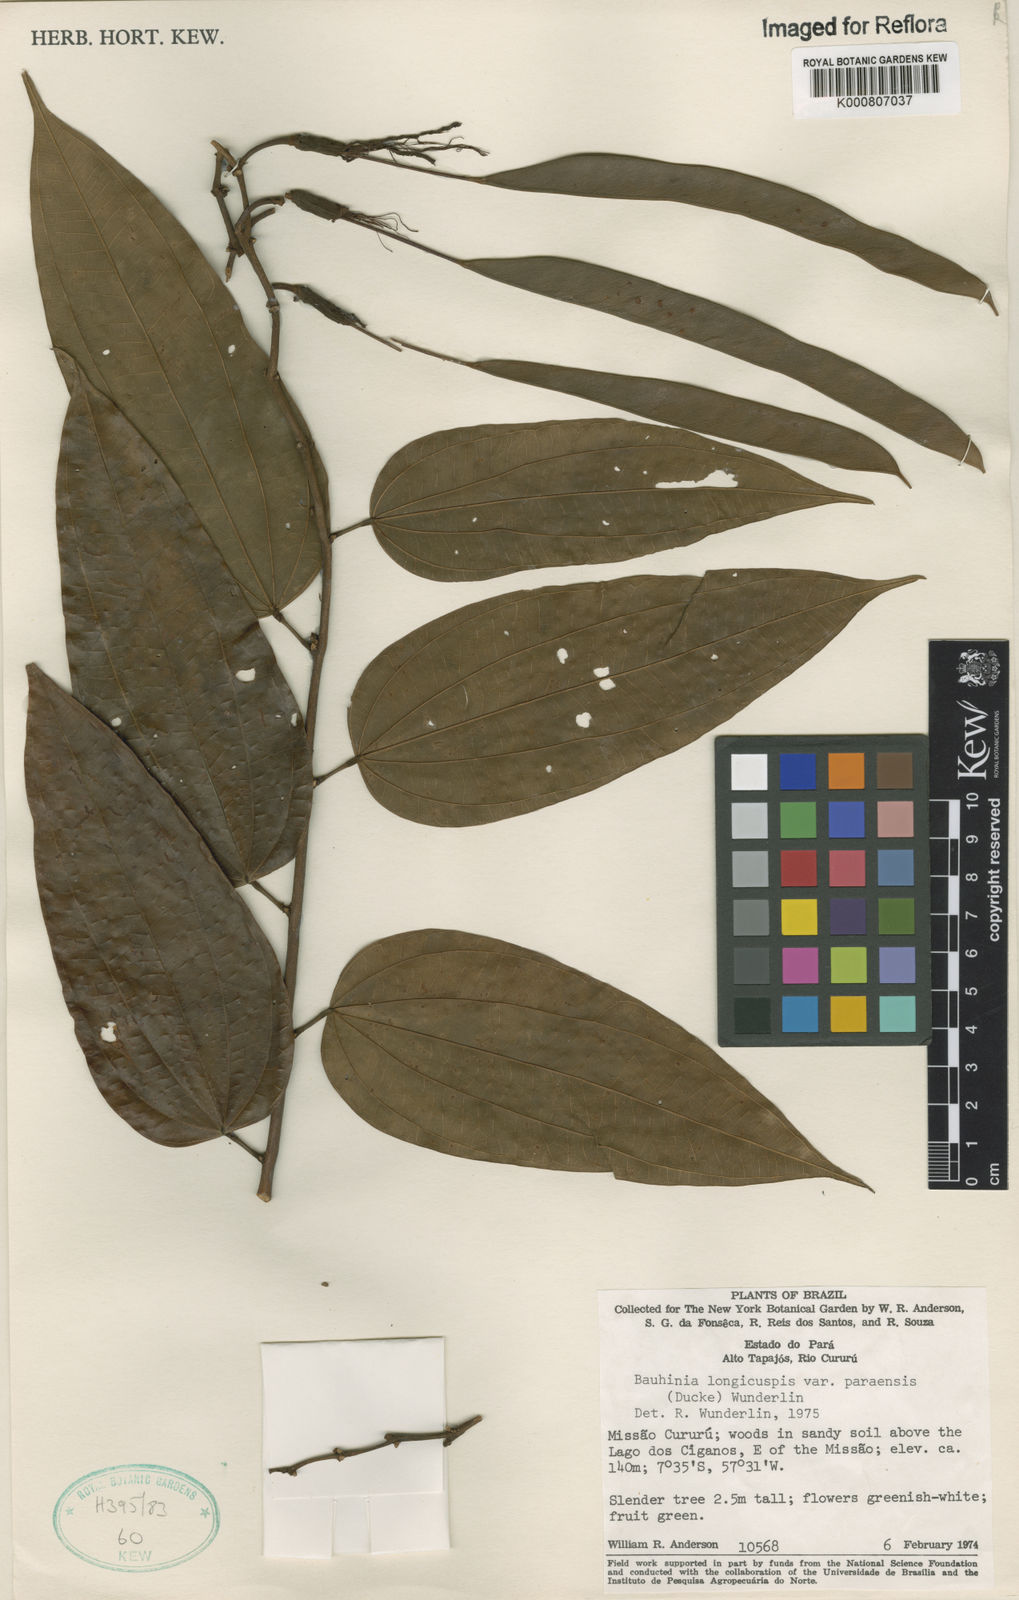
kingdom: Plantae
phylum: Tracheophyta
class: Magnoliopsida
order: Fabales
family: Fabaceae
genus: Bauhinia
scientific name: Bauhinia longicuspis
